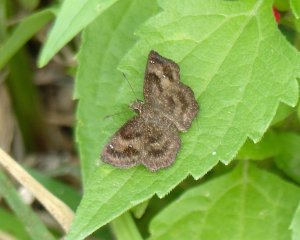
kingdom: Animalia
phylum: Arthropoda
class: Insecta
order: Lepidoptera
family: Hesperiidae
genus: Staphylus
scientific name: Staphylus mazans
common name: Mazans Scallopwing
